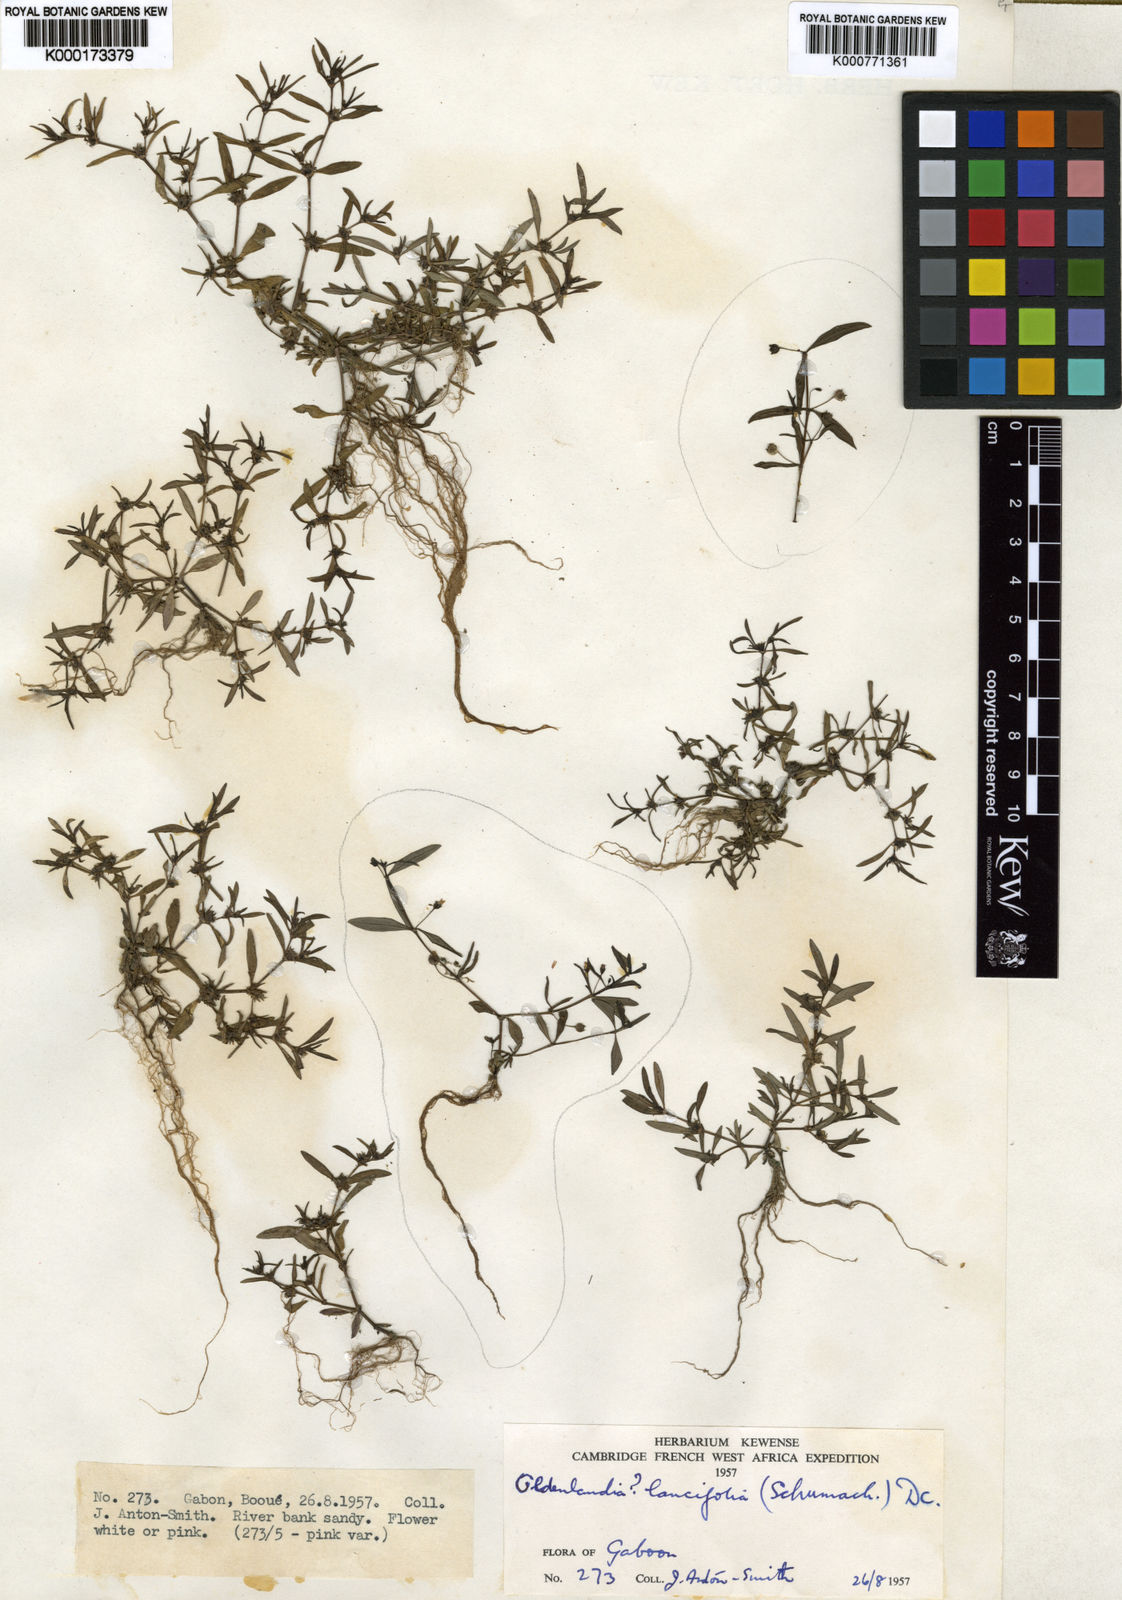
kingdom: Plantae
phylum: Tracheophyta
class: Magnoliopsida
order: Gentianales
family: Rubiaceae
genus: Oldenlandia
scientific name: Oldenlandia lancifolia
